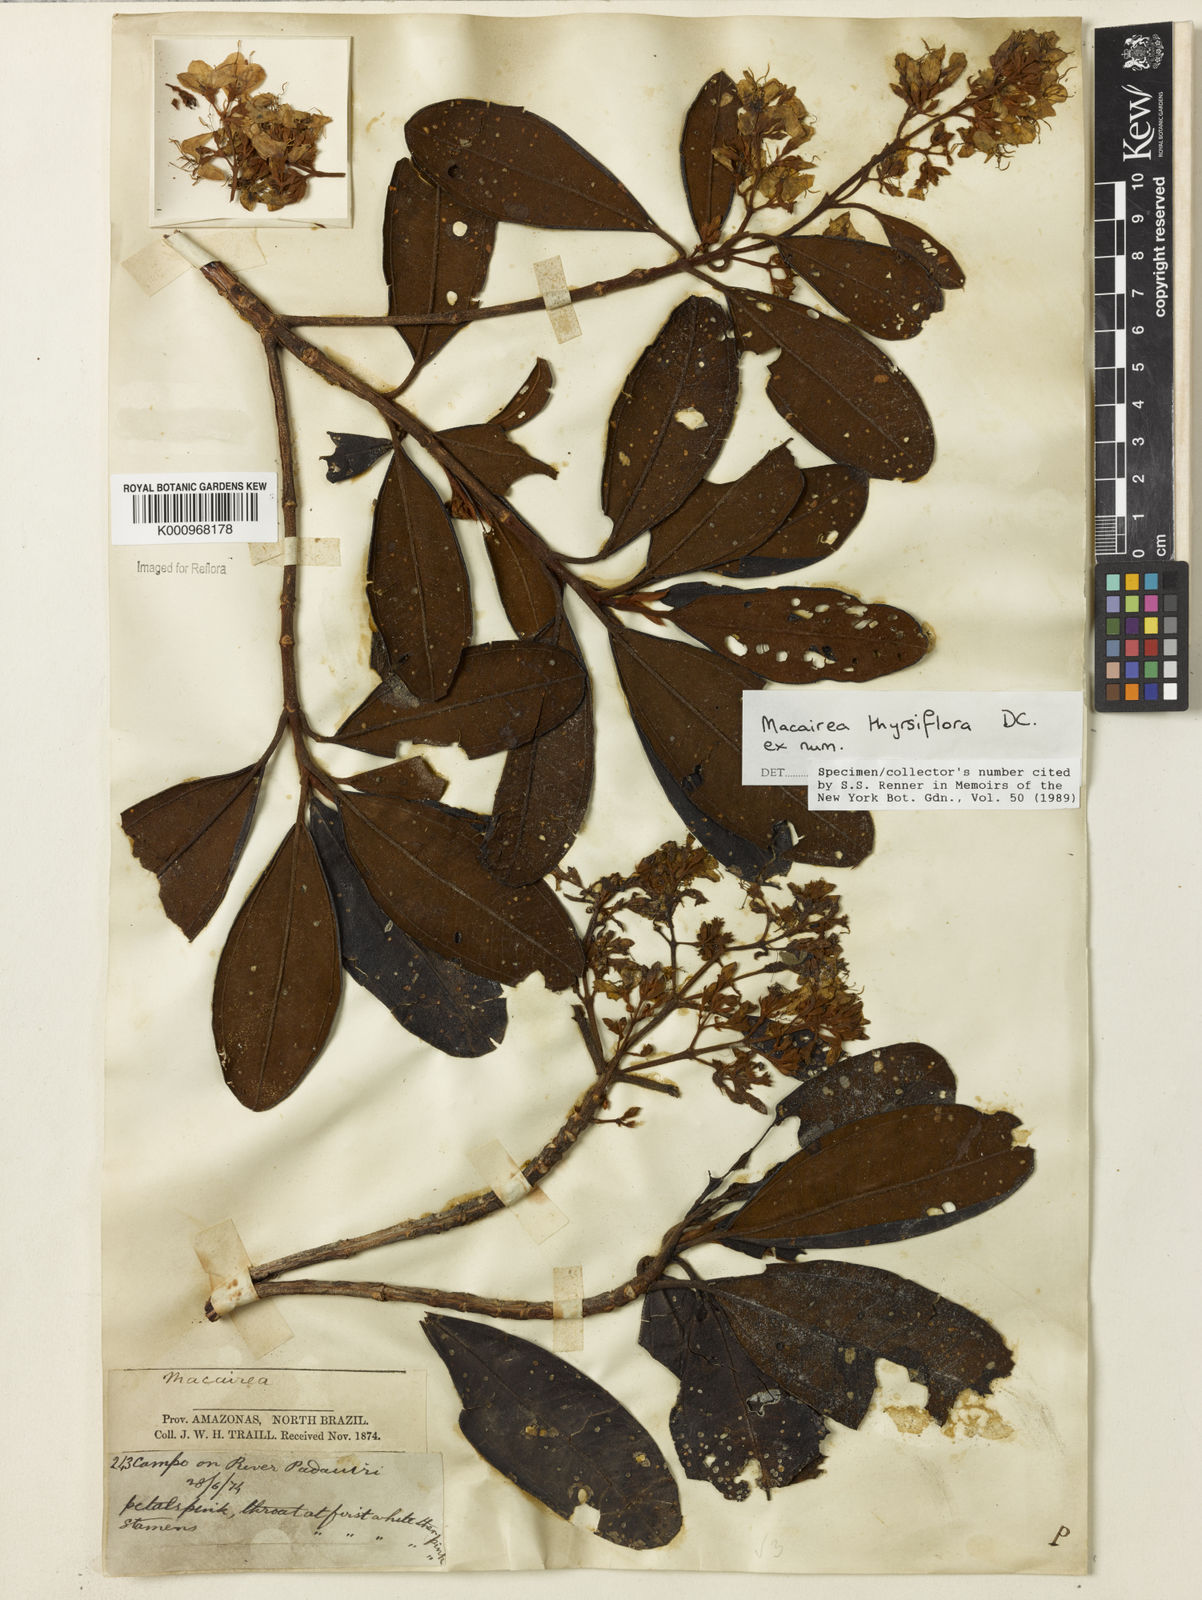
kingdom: Plantae
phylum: Tracheophyta
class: Magnoliopsida
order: Myrtales
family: Melastomataceae
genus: Macairea
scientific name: Macairea thyrsiflora
